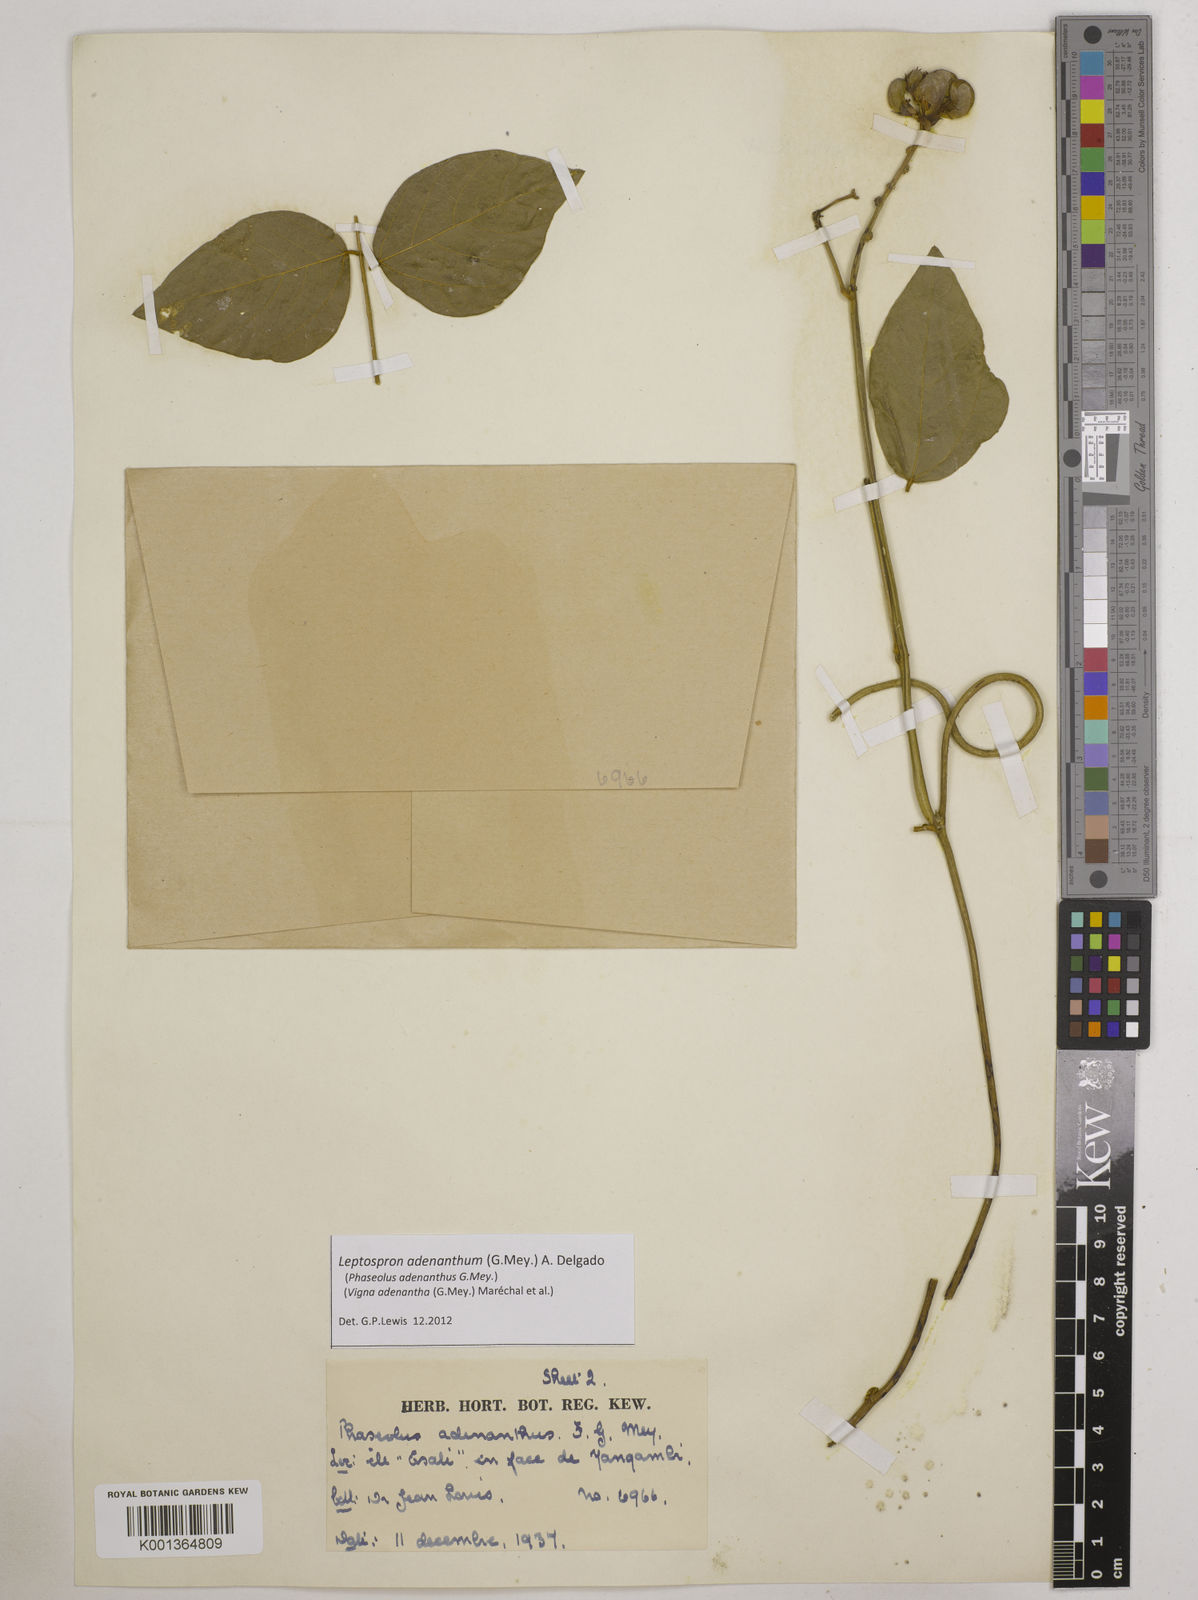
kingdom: Plantae
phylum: Tracheophyta
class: Magnoliopsida
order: Fabales
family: Fabaceae
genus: Leptospron
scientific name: Leptospron adenanthum
